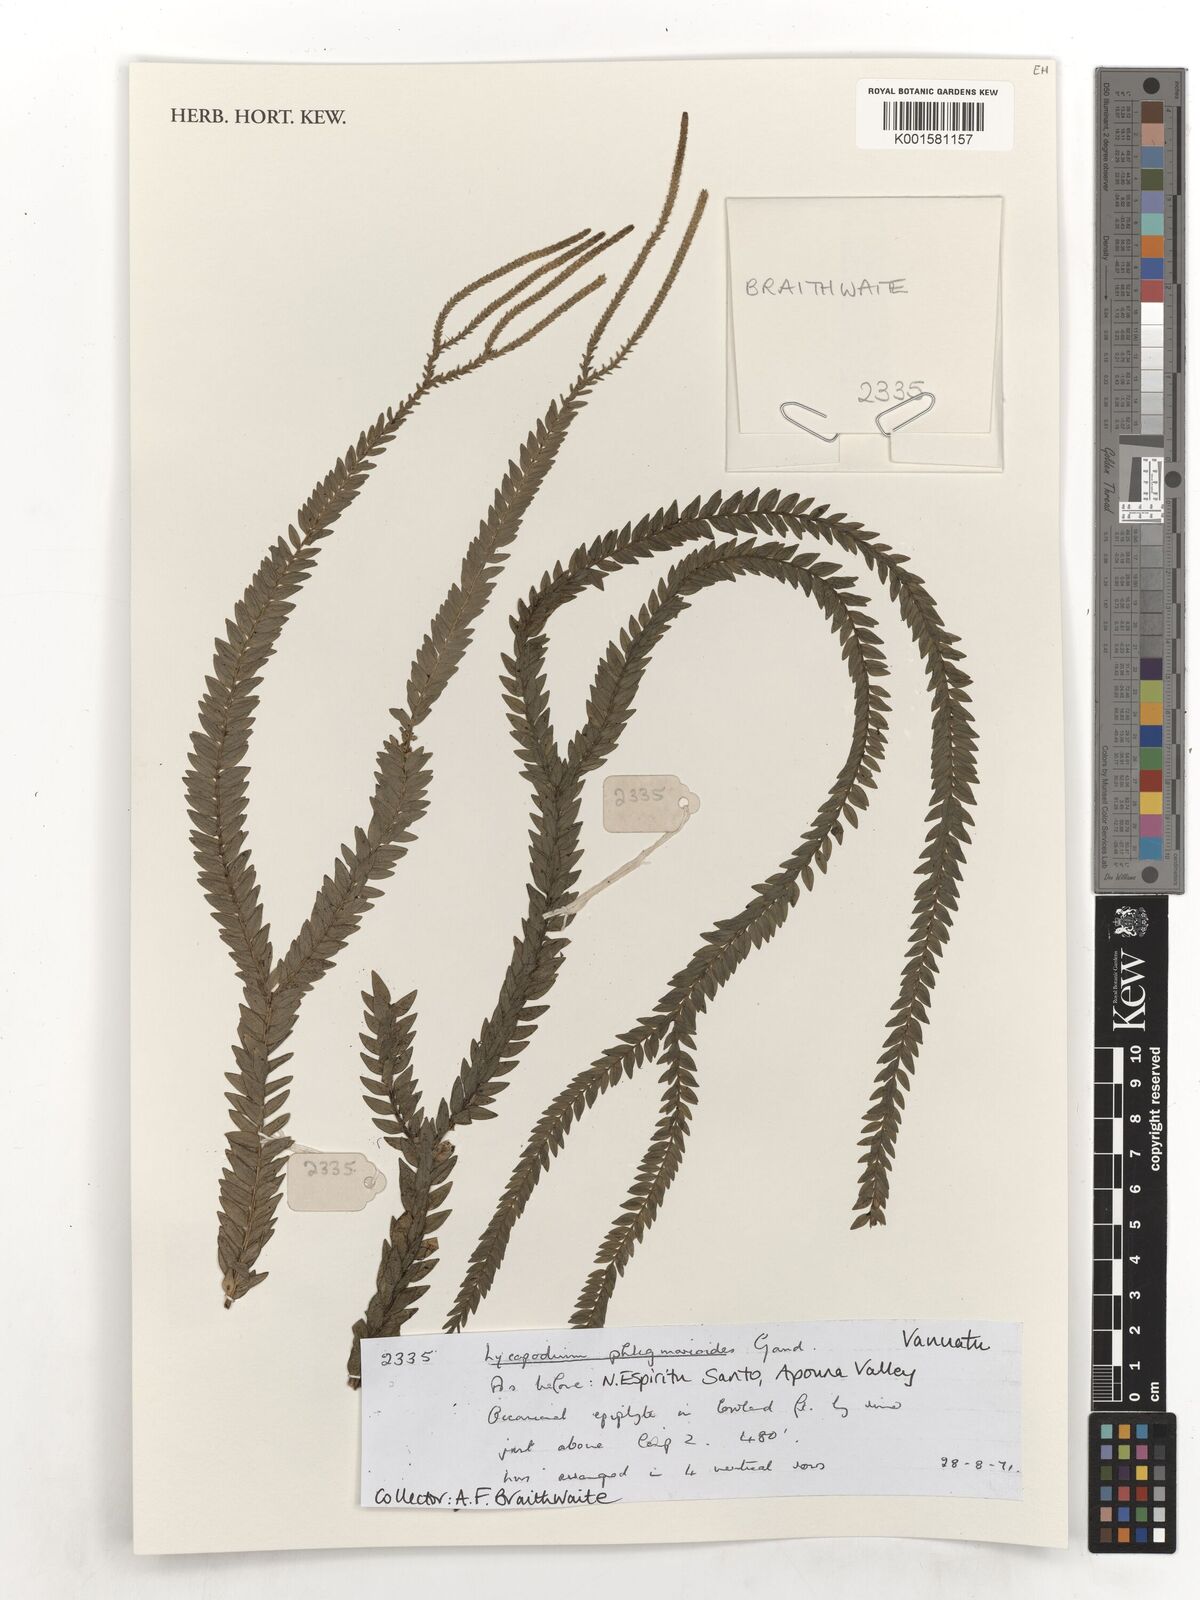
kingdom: Plantae
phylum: Tracheophyta
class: Lycopodiopsida
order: Lycopodiales
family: Lycopodiaceae
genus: Phlegmariurus
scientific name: Phlegmariurus phlegmarioides
